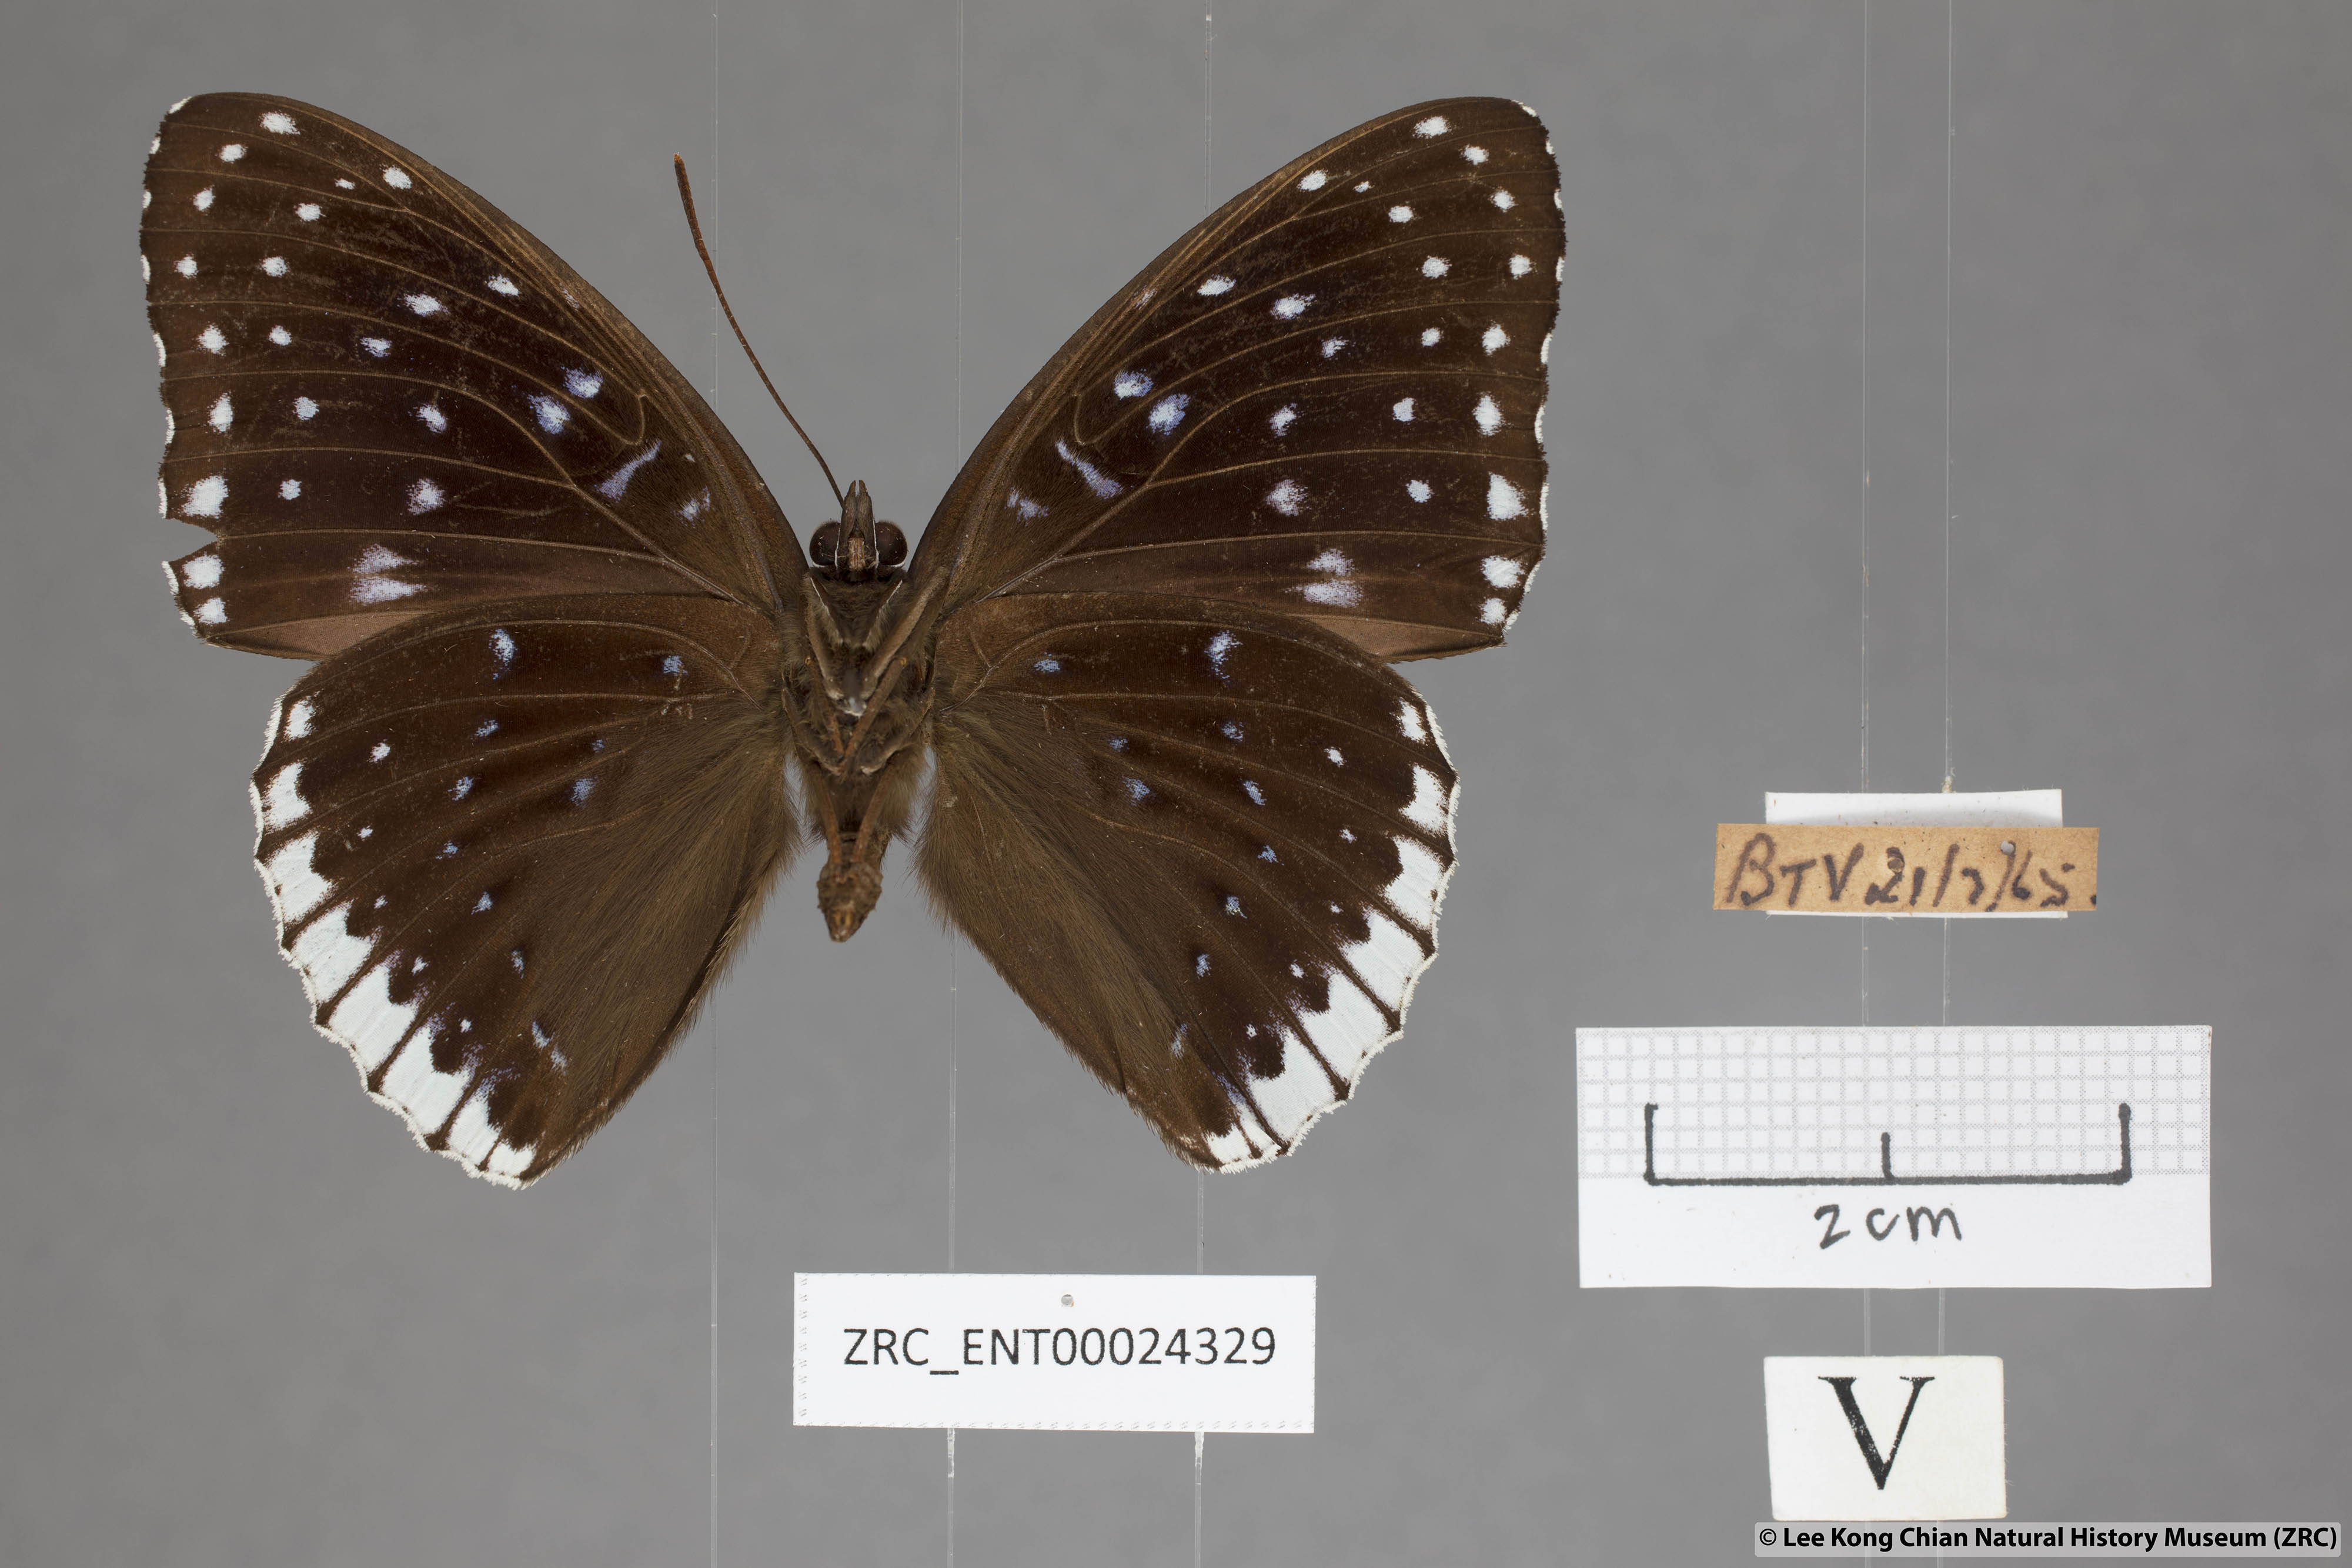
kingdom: Animalia
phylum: Arthropoda
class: Insecta
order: Lepidoptera
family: Nymphalidae
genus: Stibochiona
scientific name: Stibochiona nicea
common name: Popinjay
